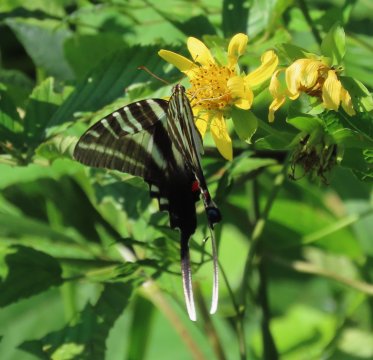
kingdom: Animalia
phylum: Arthropoda
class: Insecta
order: Lepidoptera
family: Papilionidae
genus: Protographium
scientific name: Protographium marcellus
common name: Zebra Swallowtail
